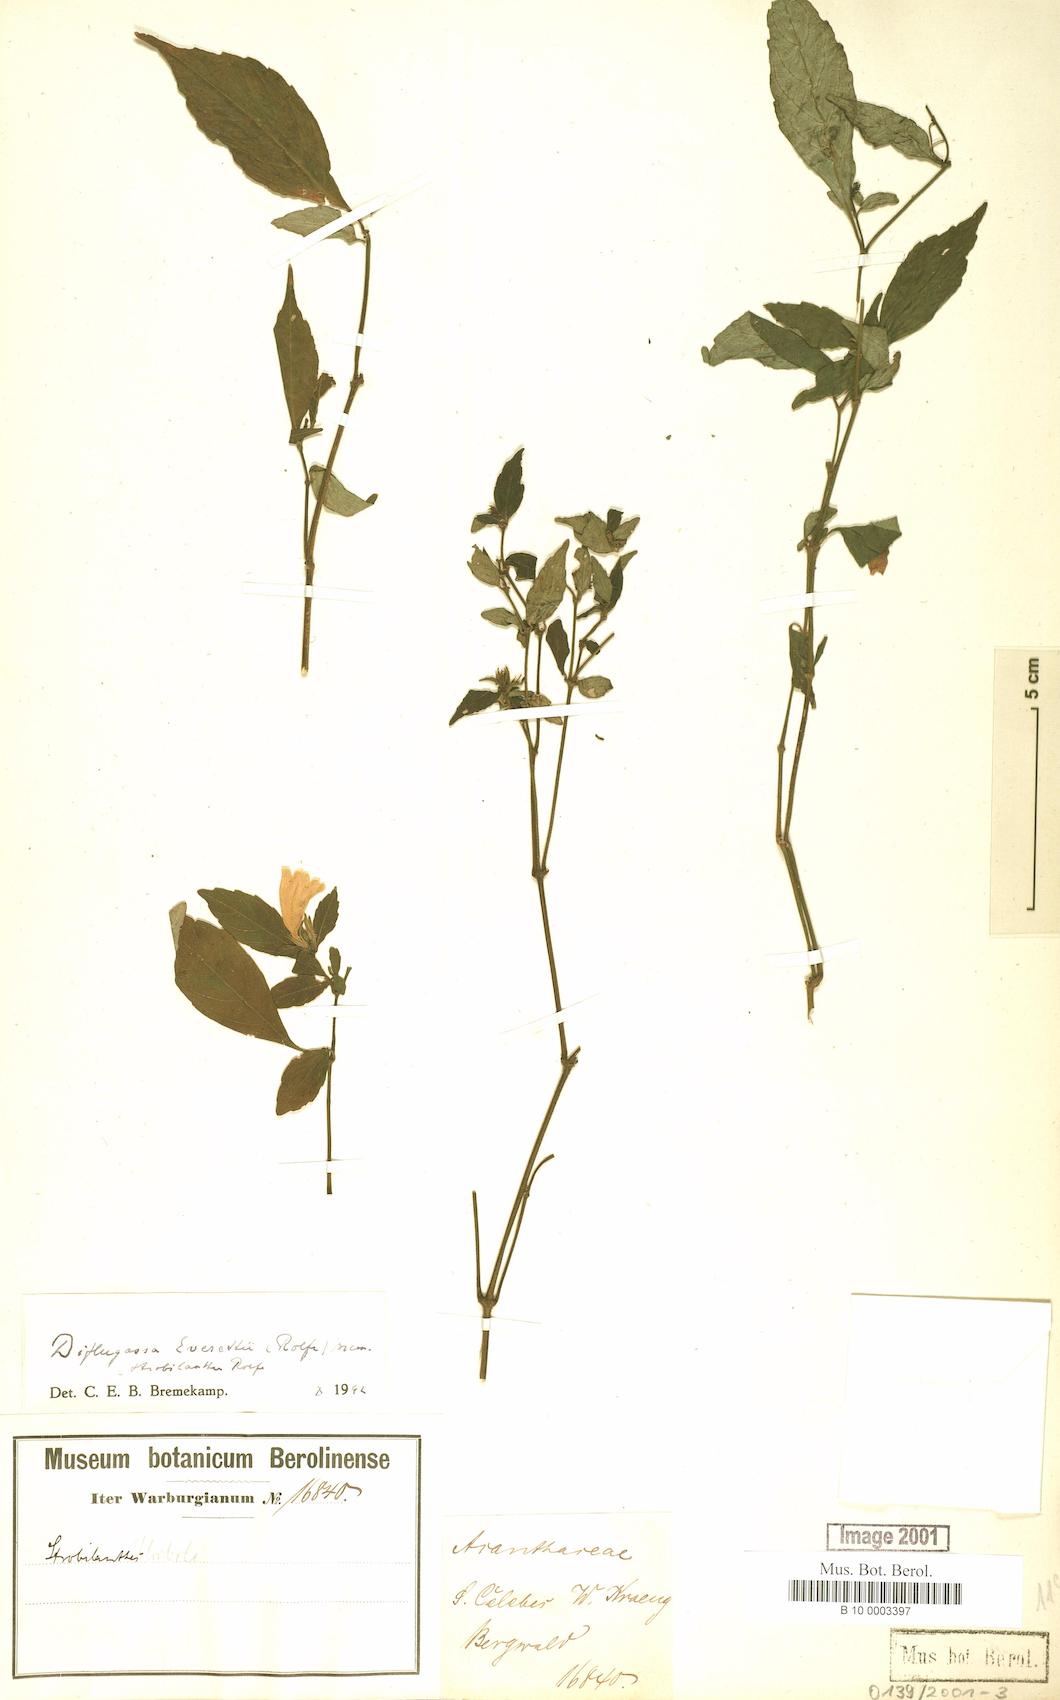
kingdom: Plantae
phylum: Tracheophyta
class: Magnoliopsida
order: Lamiales
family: Acanthaceae
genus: Strobilanthes
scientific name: Strobilanthes filiformis
